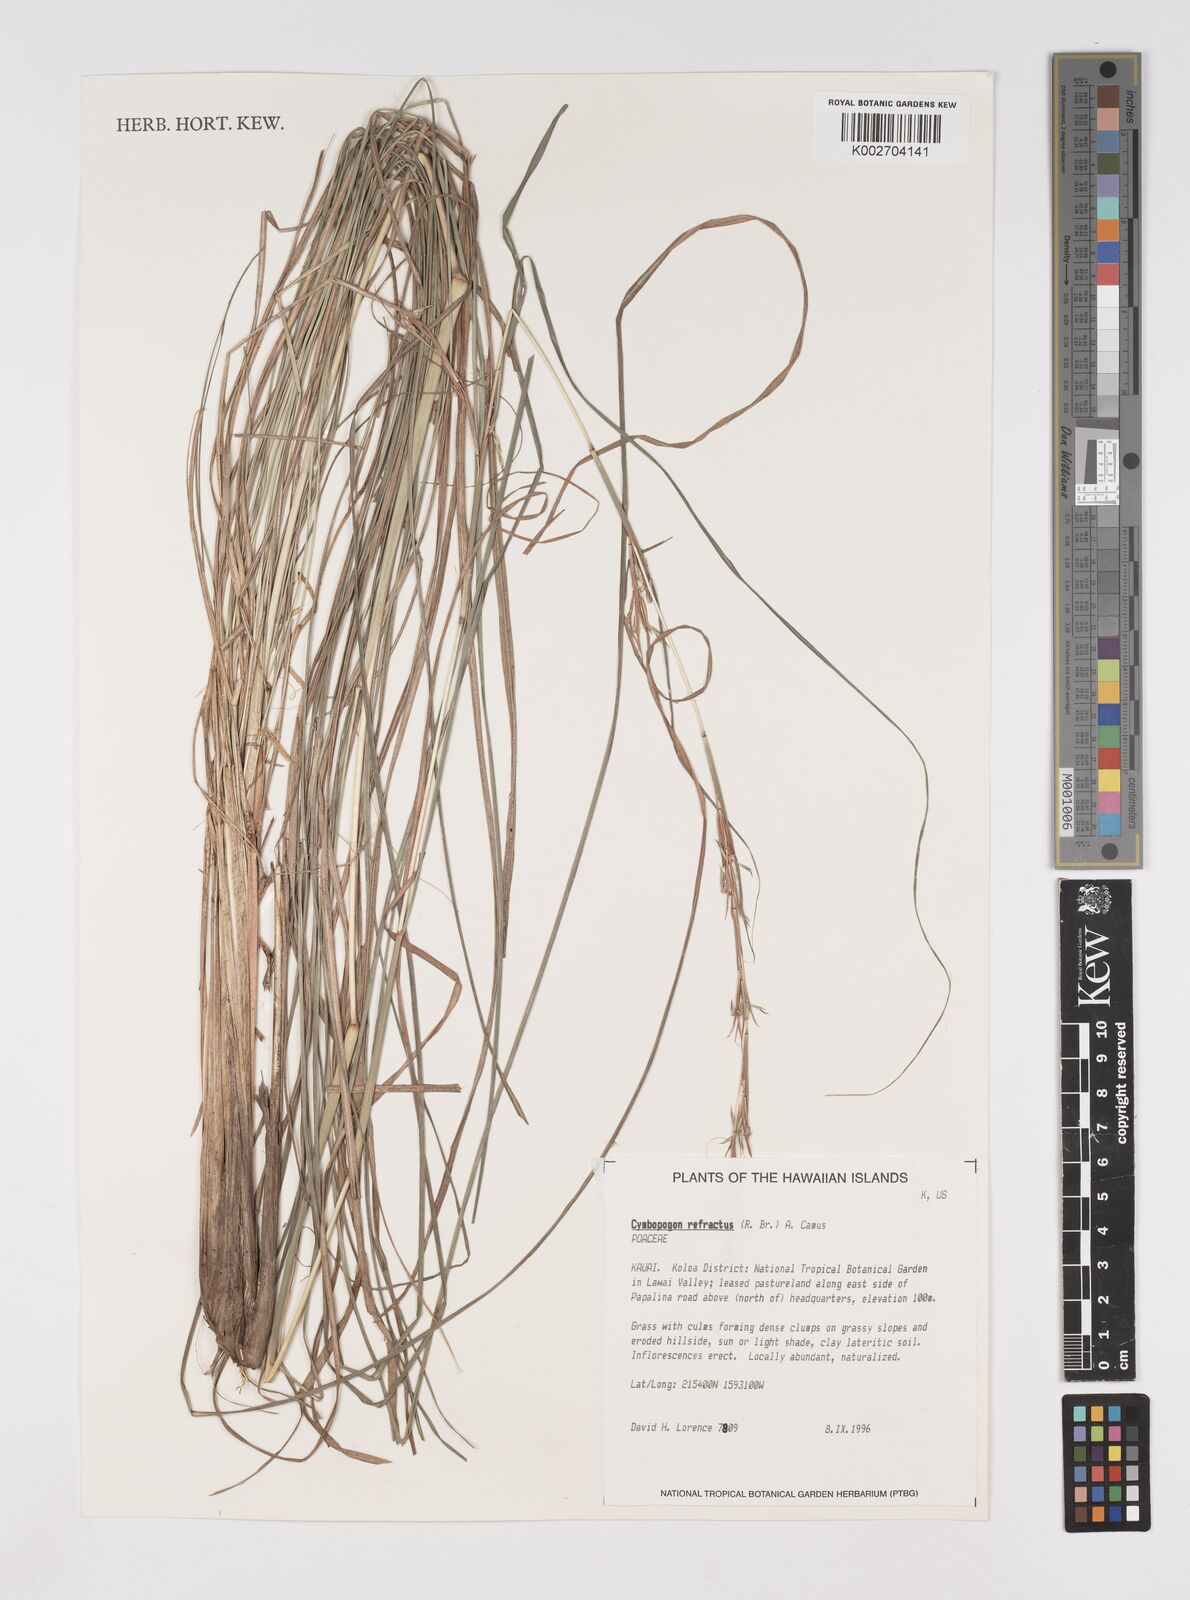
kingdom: Plantae
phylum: Tracheophyta
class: Liliopsida
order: Poales
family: Poaceae
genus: Cymbopogon
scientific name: Cymbopogon refractus
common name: Barbwire grass
